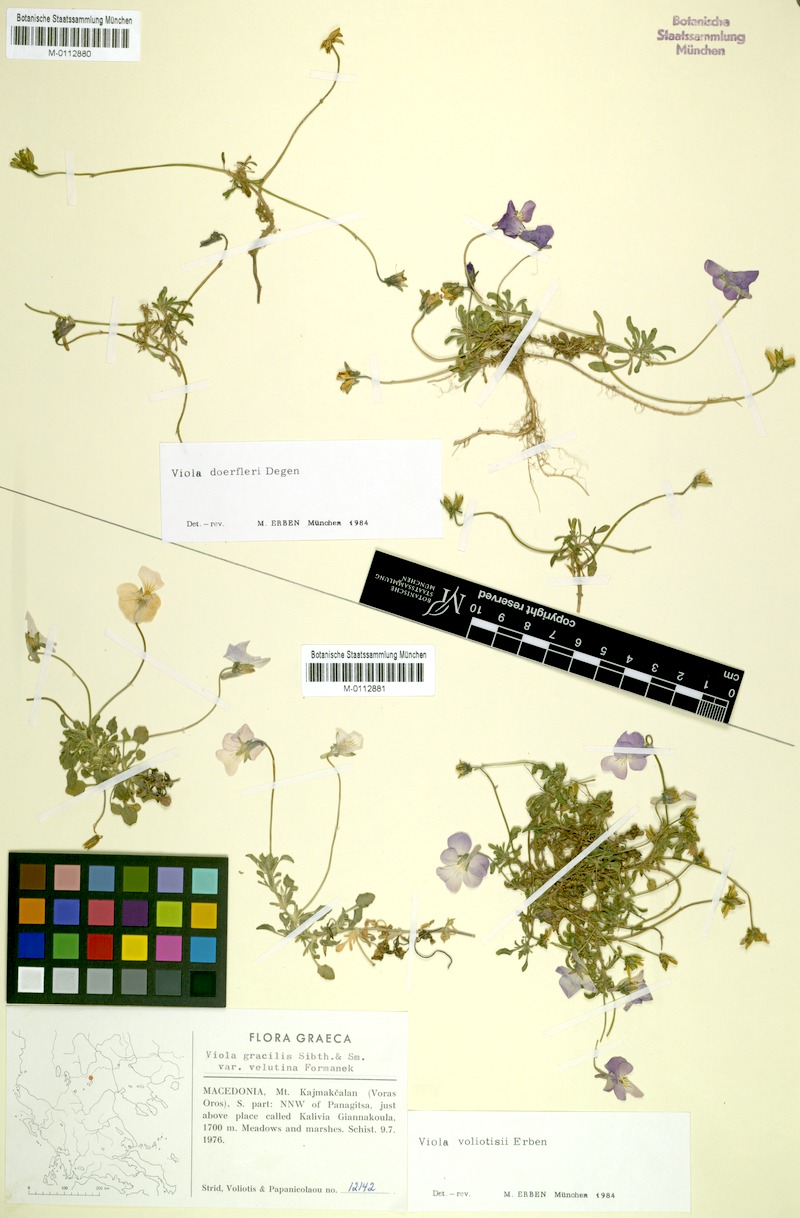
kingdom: Plantae
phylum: Tracheophyta
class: Magnoliopsida
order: Malpighiales
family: Violaceae
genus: Viola
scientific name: Viola voliotisii
